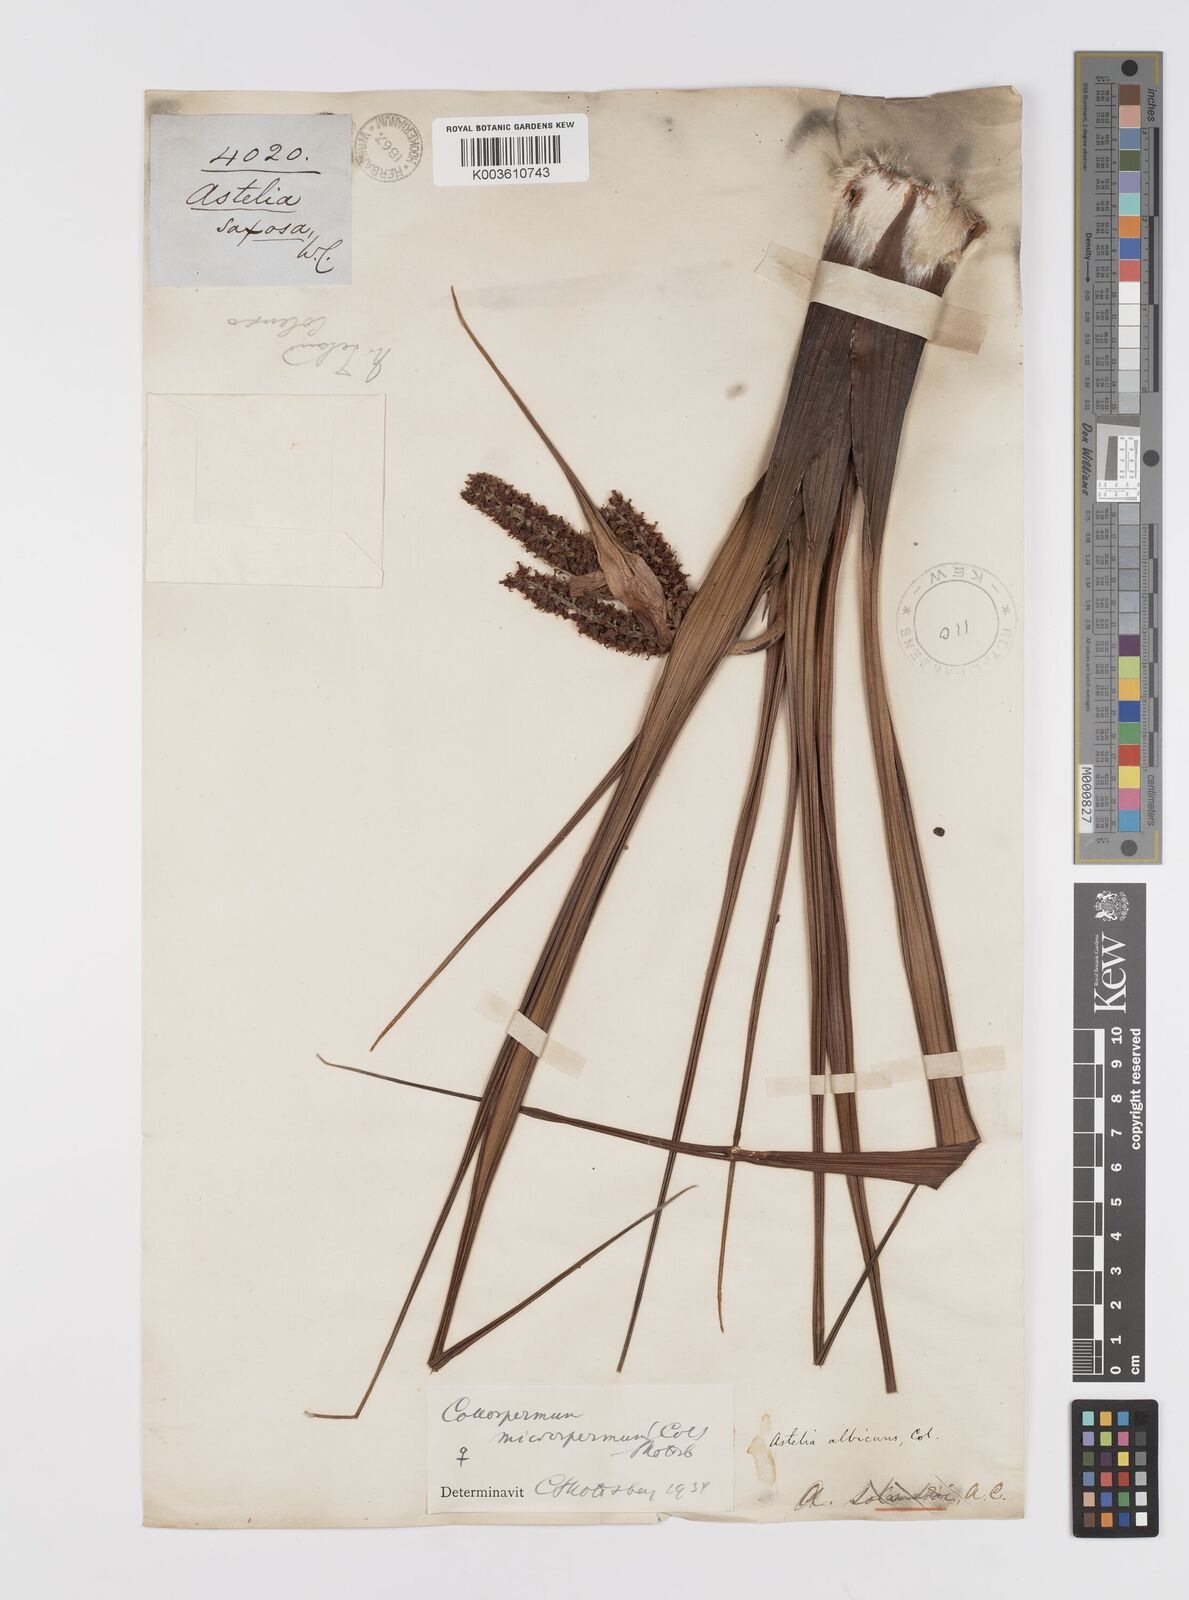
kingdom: Plantae
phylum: Tracheophyta
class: Liliopsida
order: Asparagales
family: Asteliaceae
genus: Astelia
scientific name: Astelia microsperma
